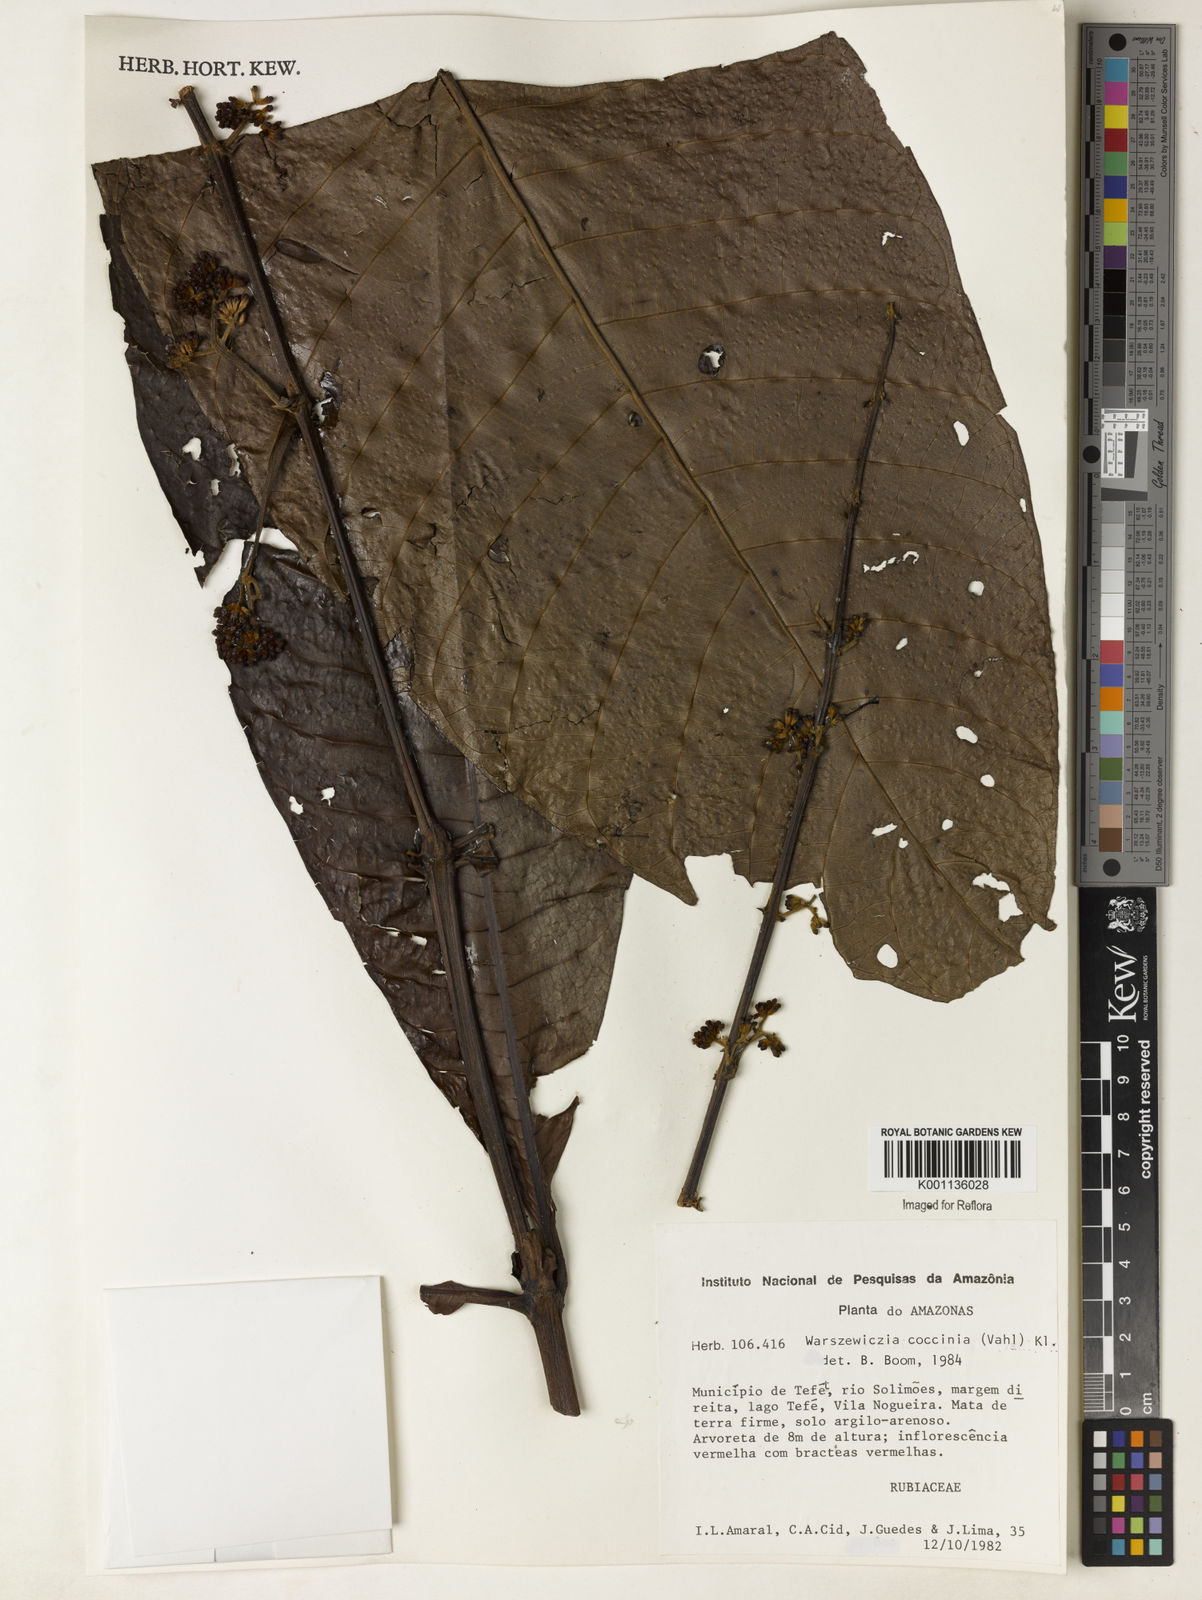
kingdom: Plantae
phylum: Tracheophyta
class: Magnoliopsida
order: Gentianales
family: Rubiaceae
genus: Warszewiczia
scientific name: Warszewiczia coccinea
